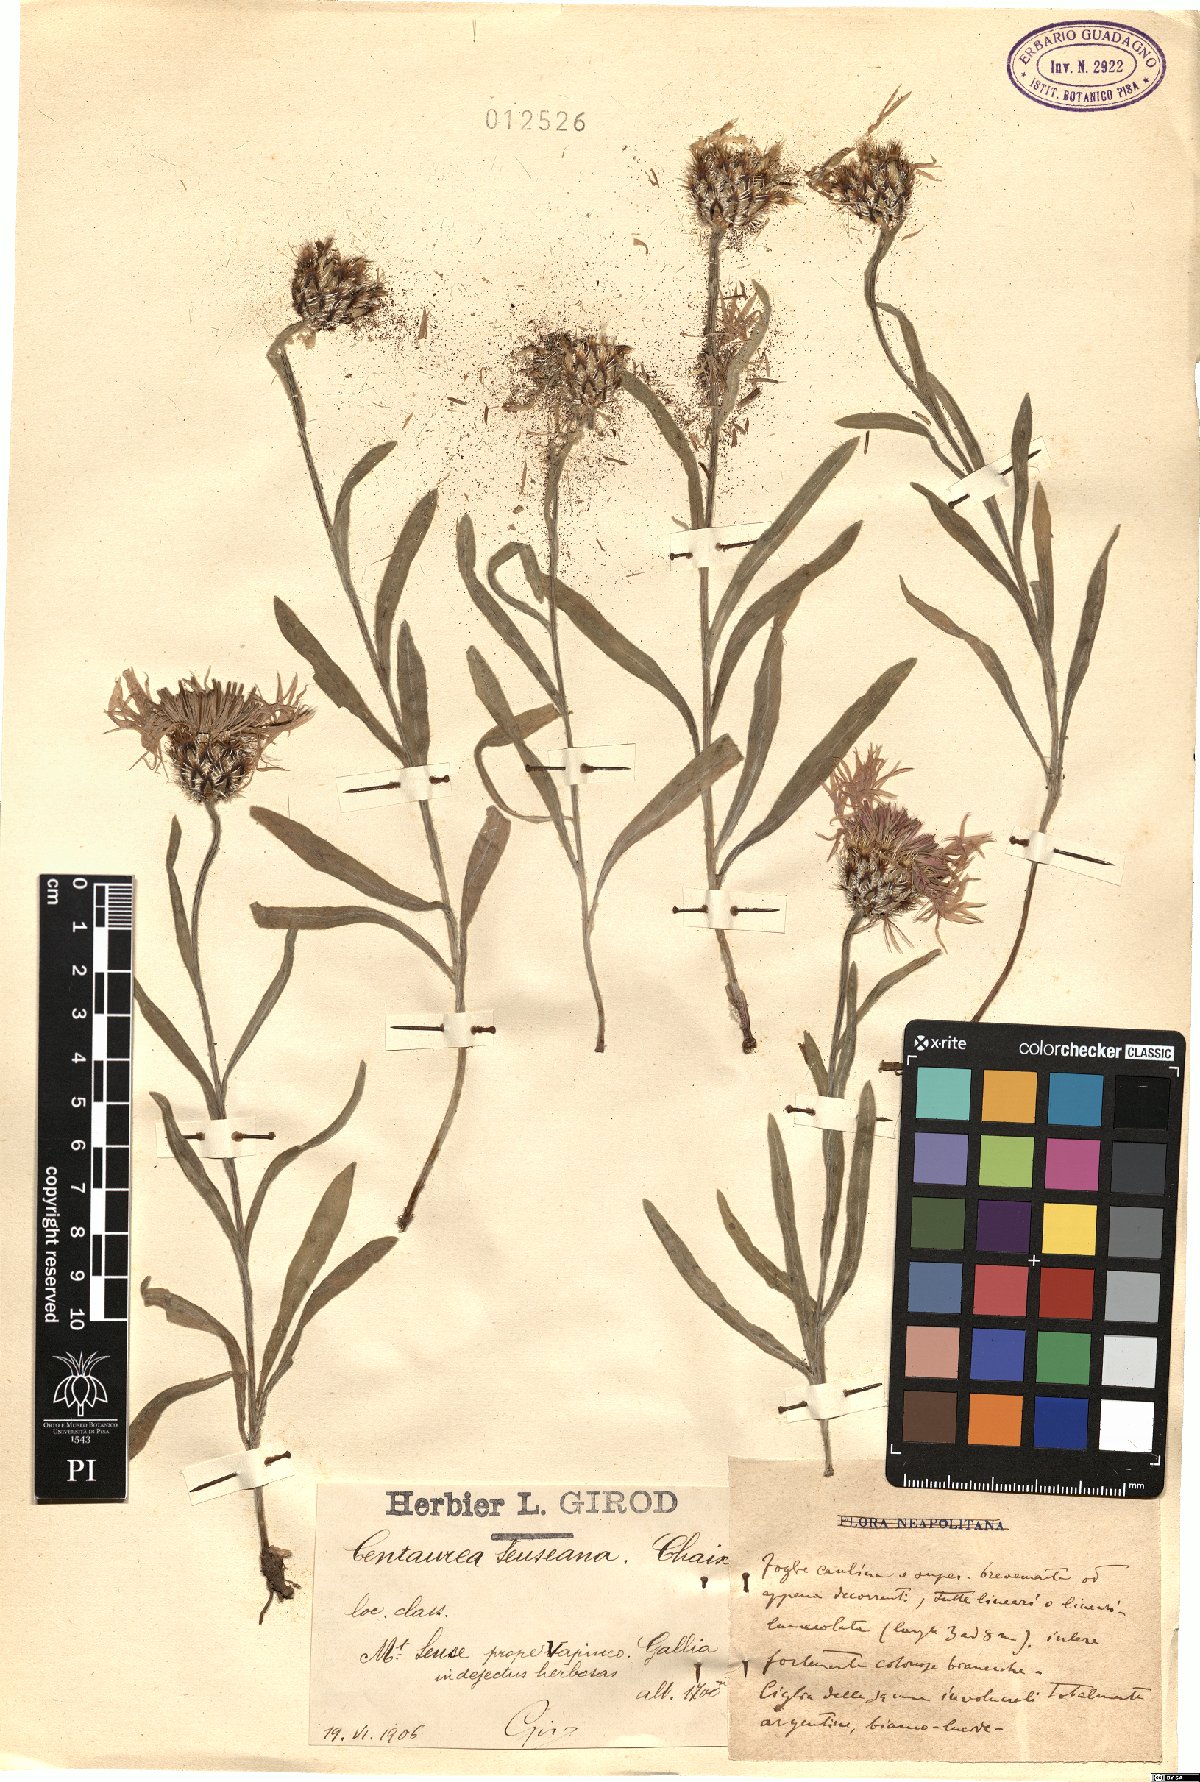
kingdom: Plantae
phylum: Tracheophyta
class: Magnoliopsida
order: Asterales
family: Asteraceae
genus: Centaurea
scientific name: Centaurea graminifolia
